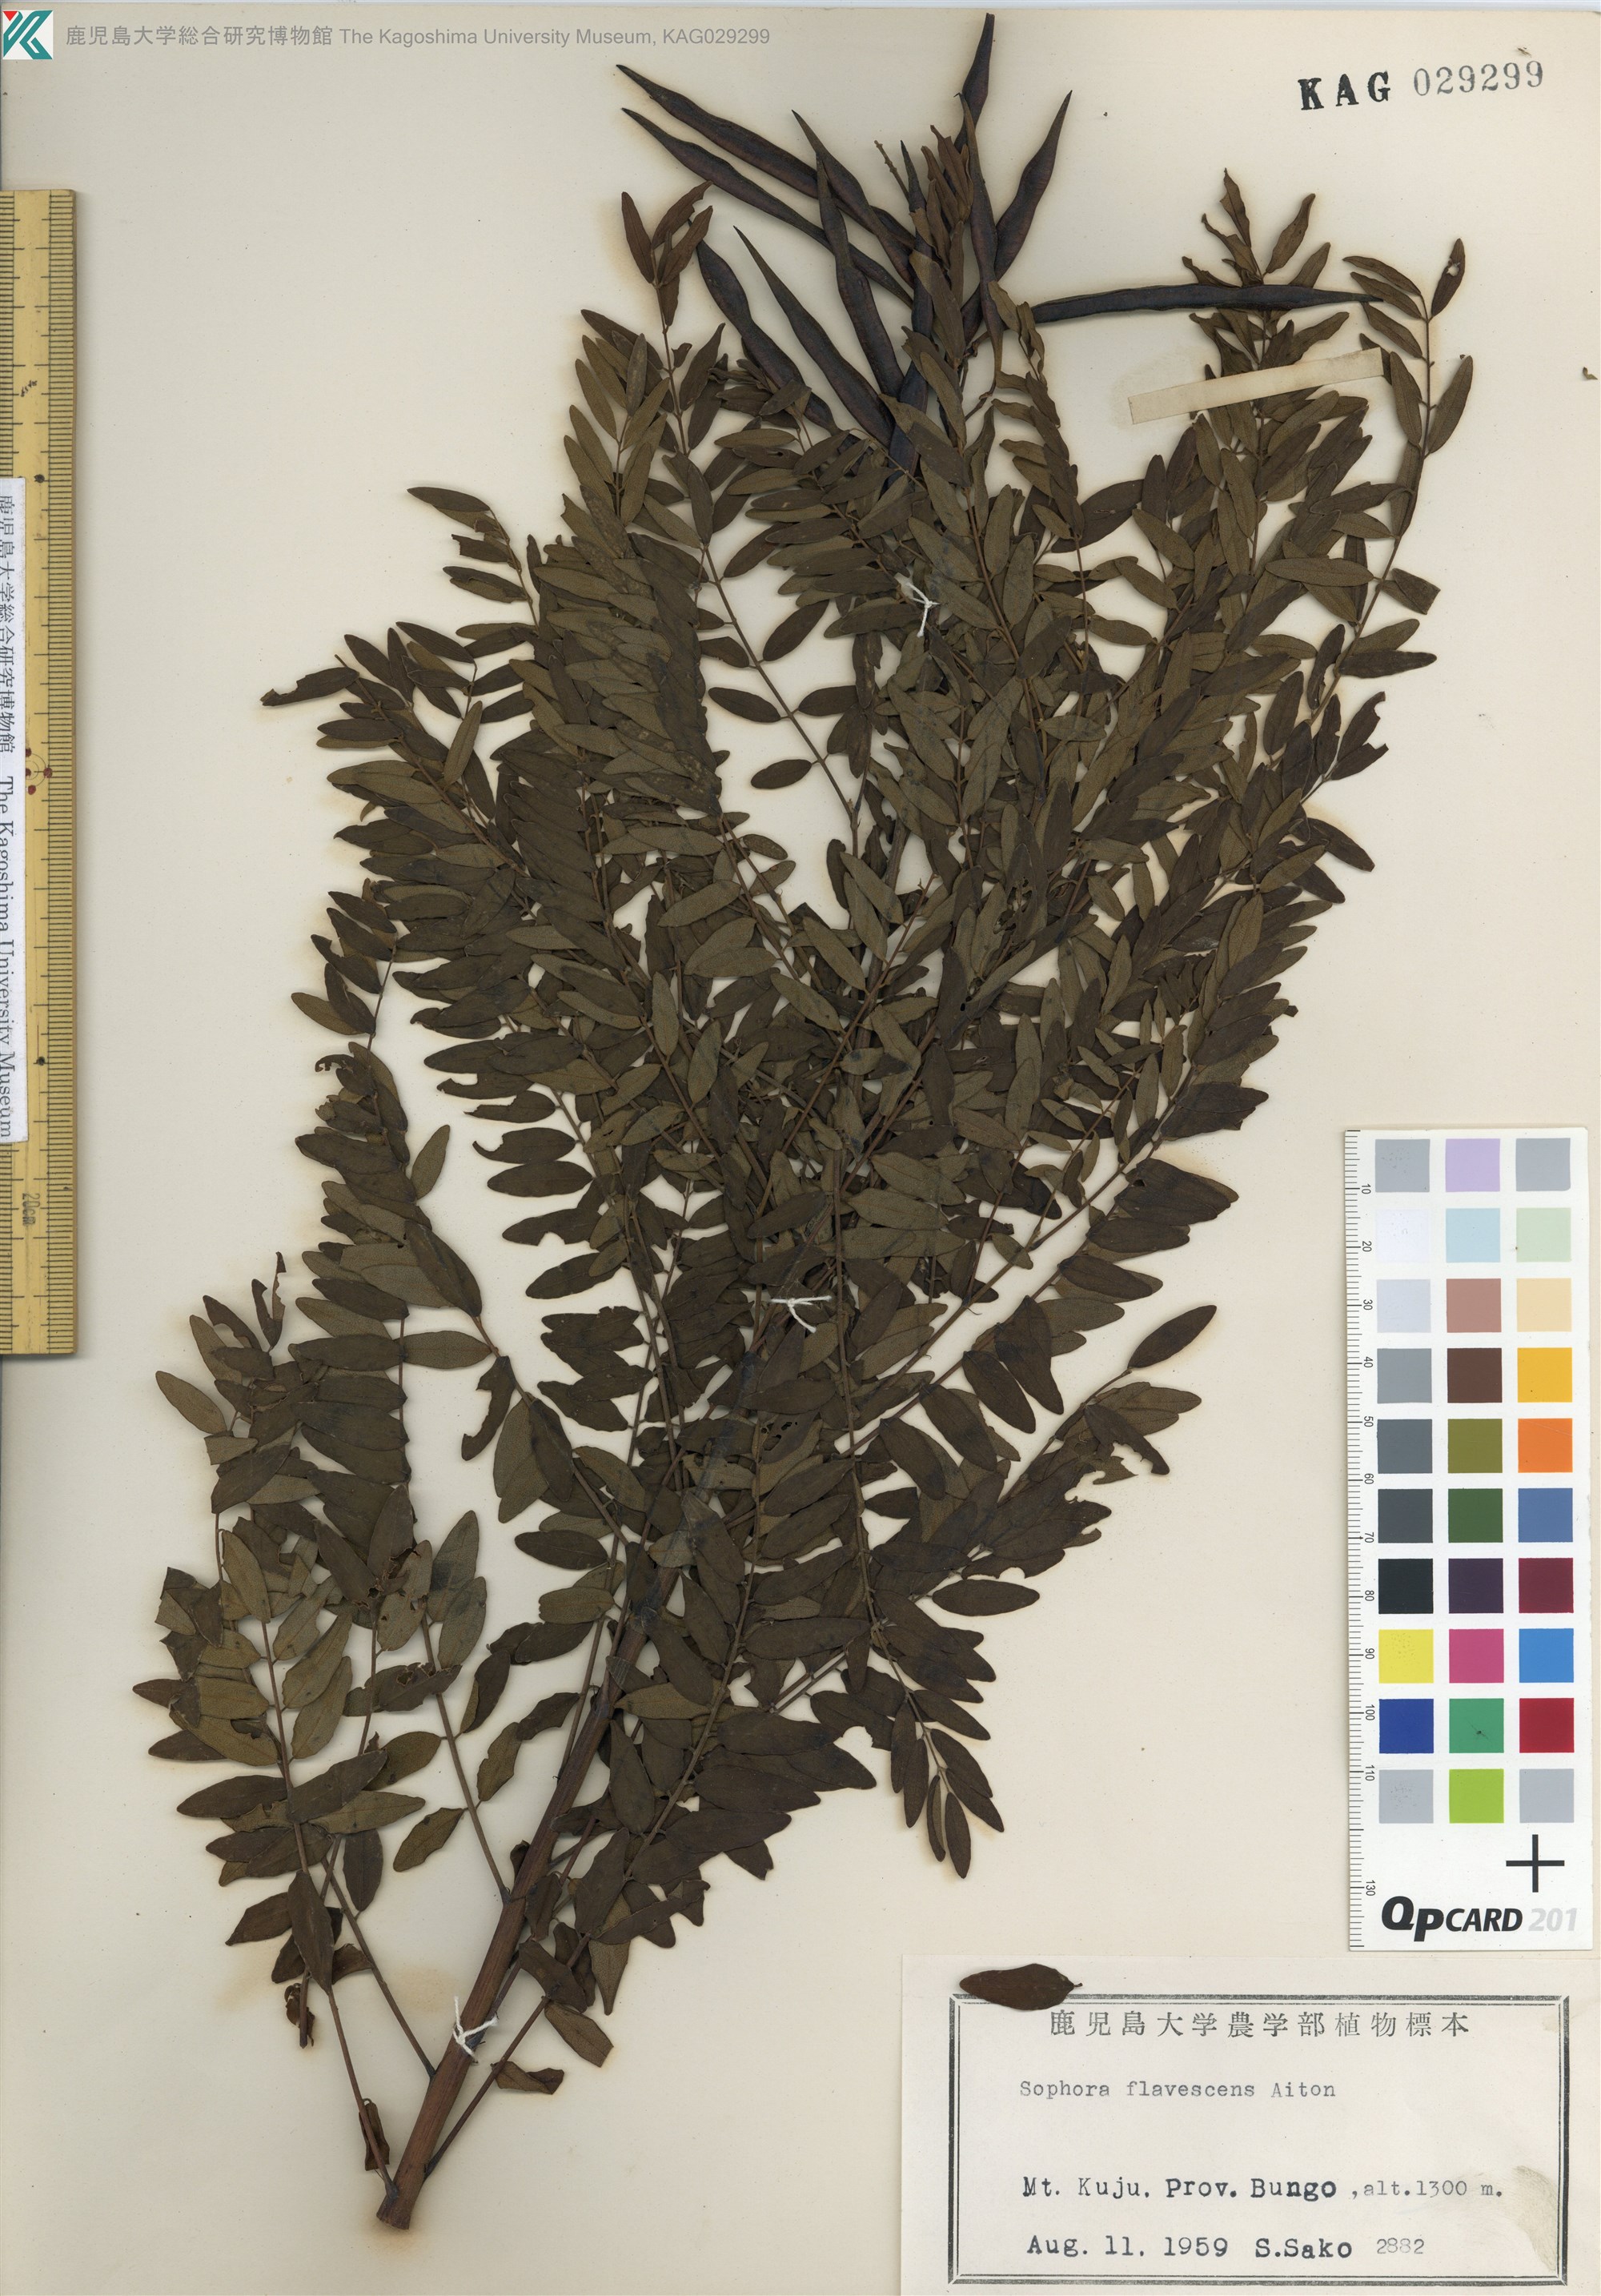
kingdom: Plantae
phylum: Tracheophyta
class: Magnoliopsida
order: Fabales
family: Fabaceae
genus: Sophora
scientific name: Sophora flavescens
